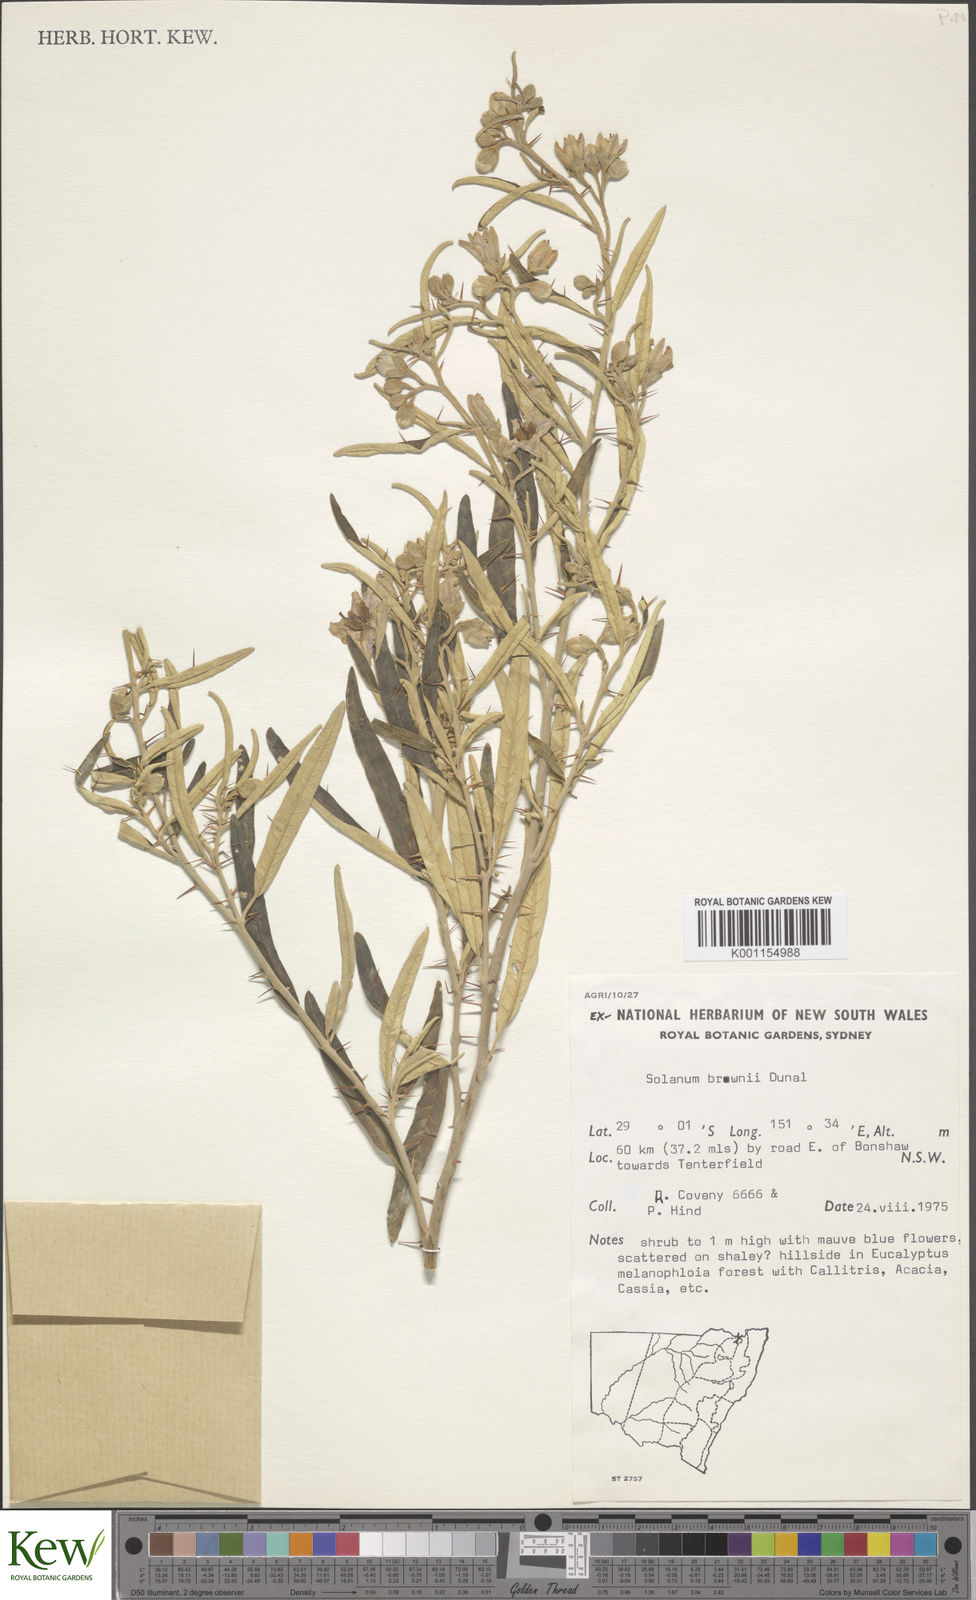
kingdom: Plantae
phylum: Tracheophyta
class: Magnoliopsida
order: Solanales
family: Solanaceae
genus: Solanum
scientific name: Solanum brownii
